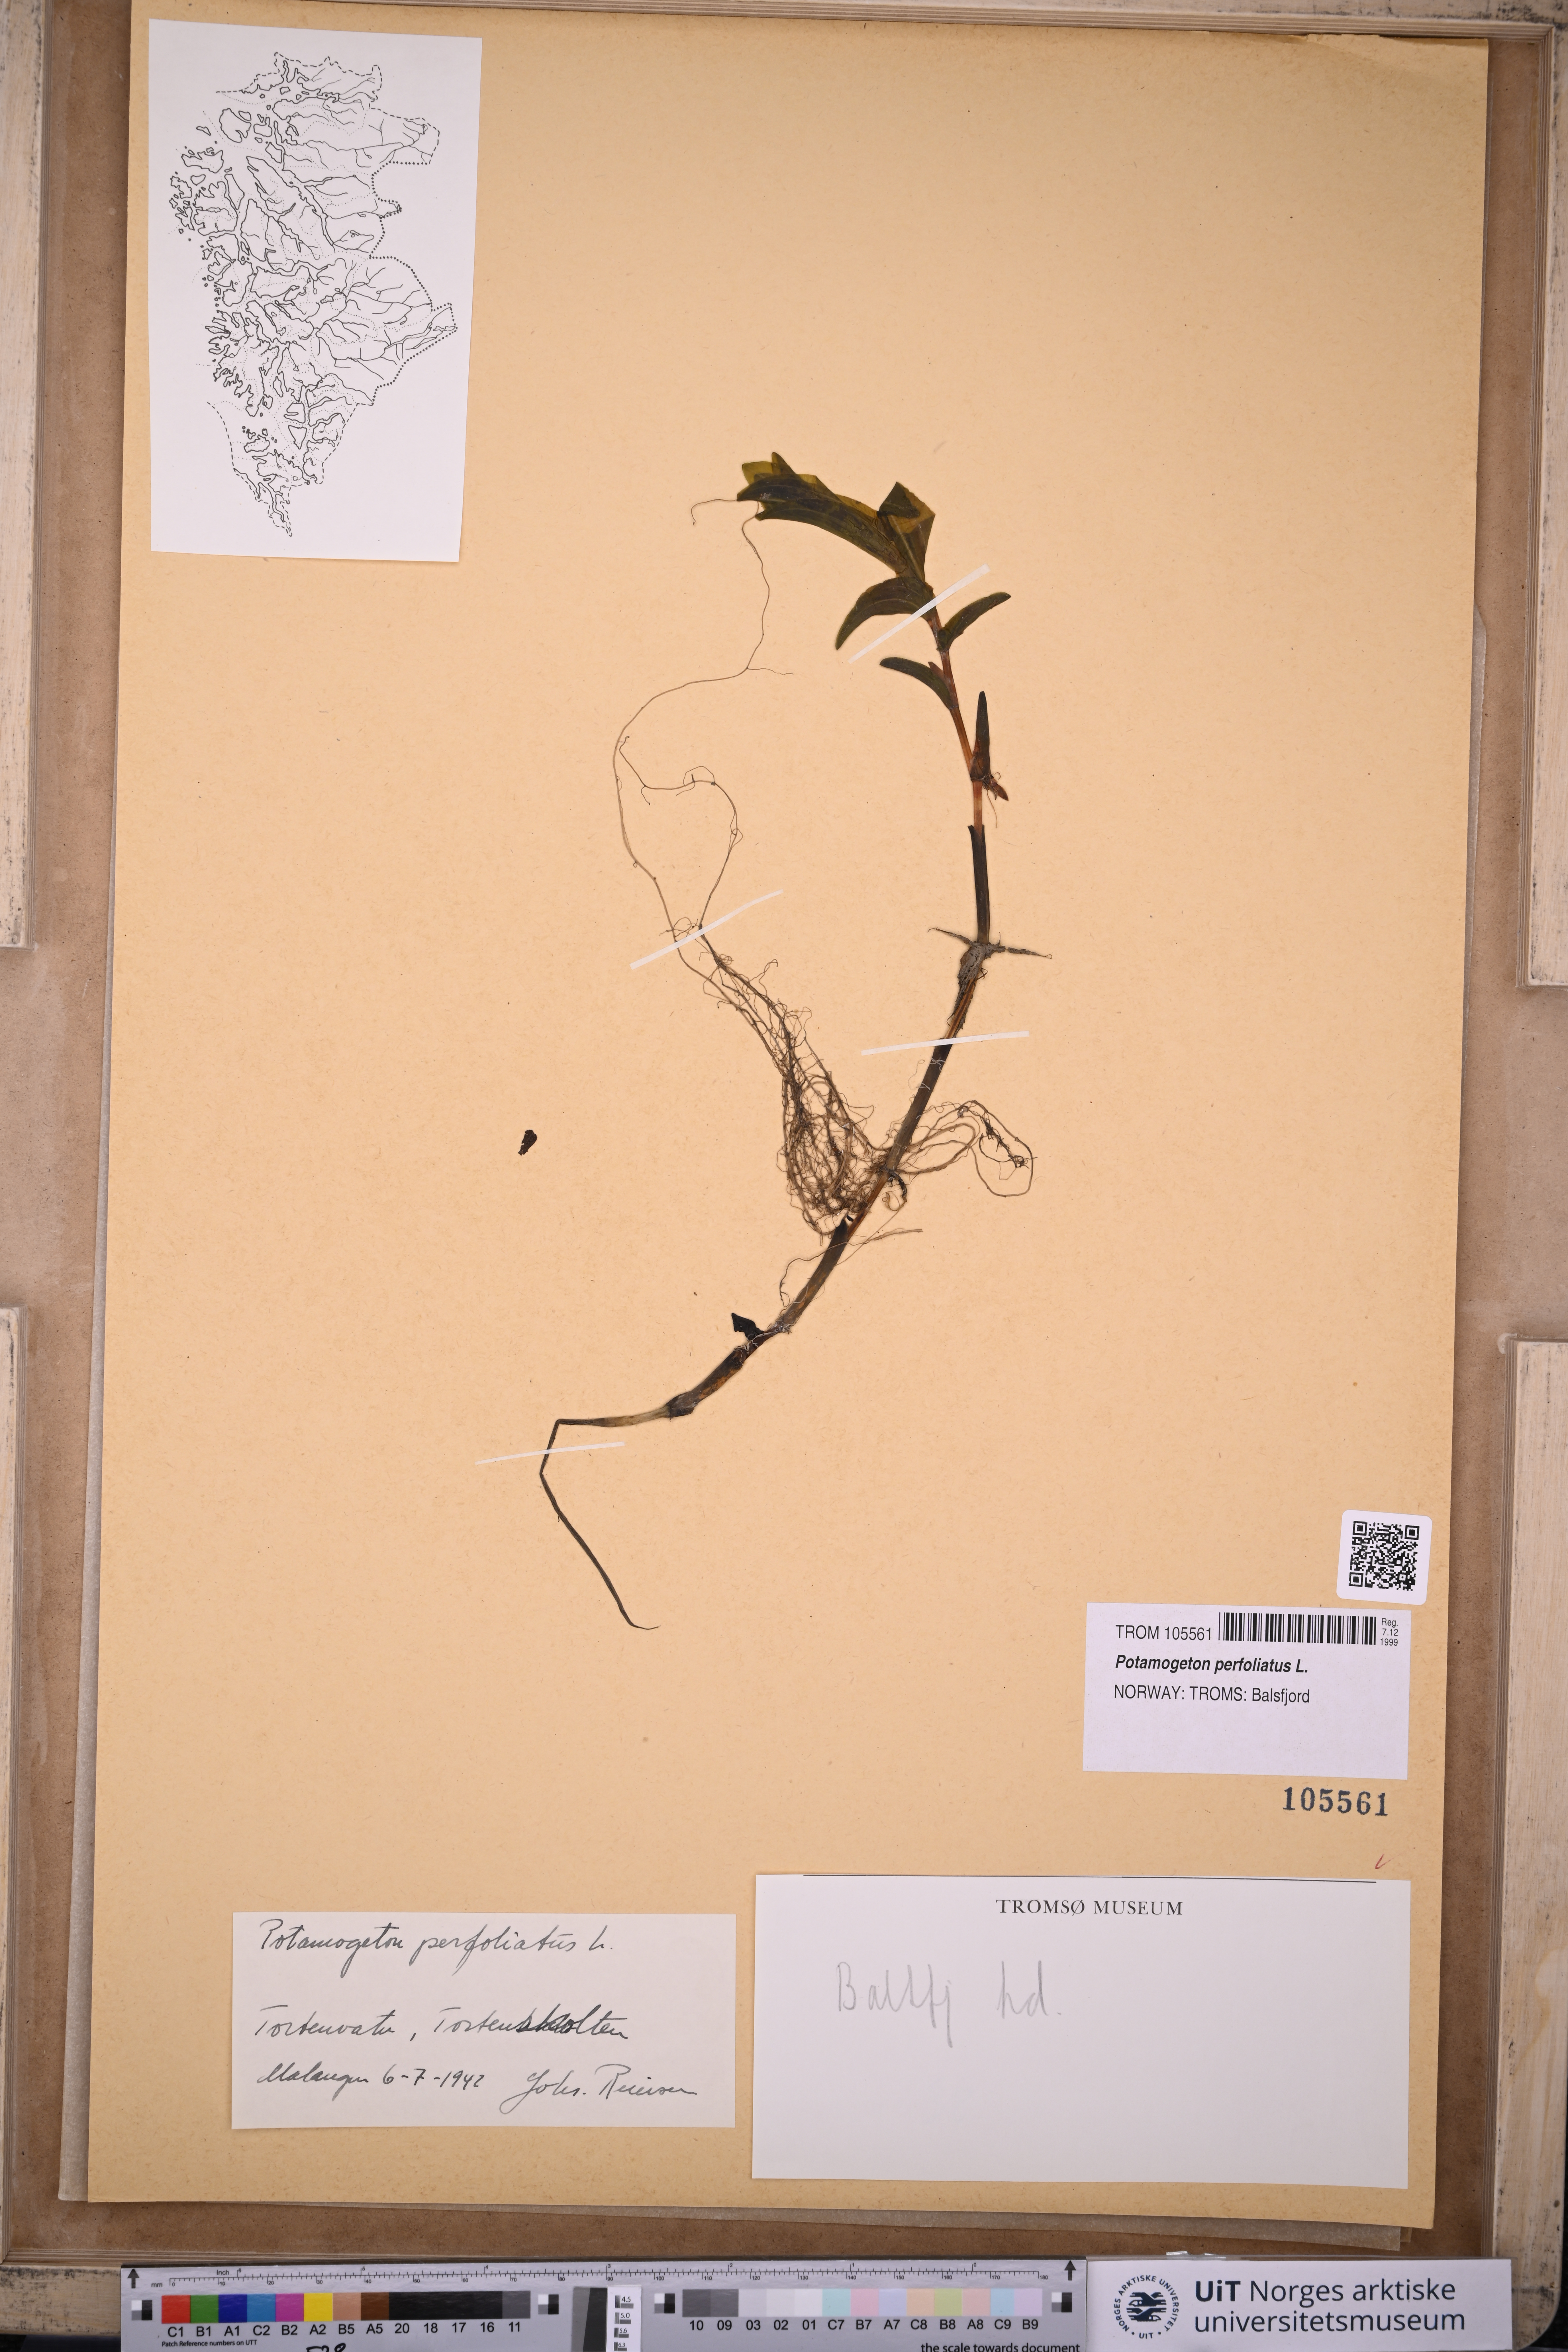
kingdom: Plantae
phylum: Tracheophyta
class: Liliopsida
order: Alismatales
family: Potamogetonaceae
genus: Potamogeton
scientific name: Potamogeton perfoliatus
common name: Perfoliate pondweed
